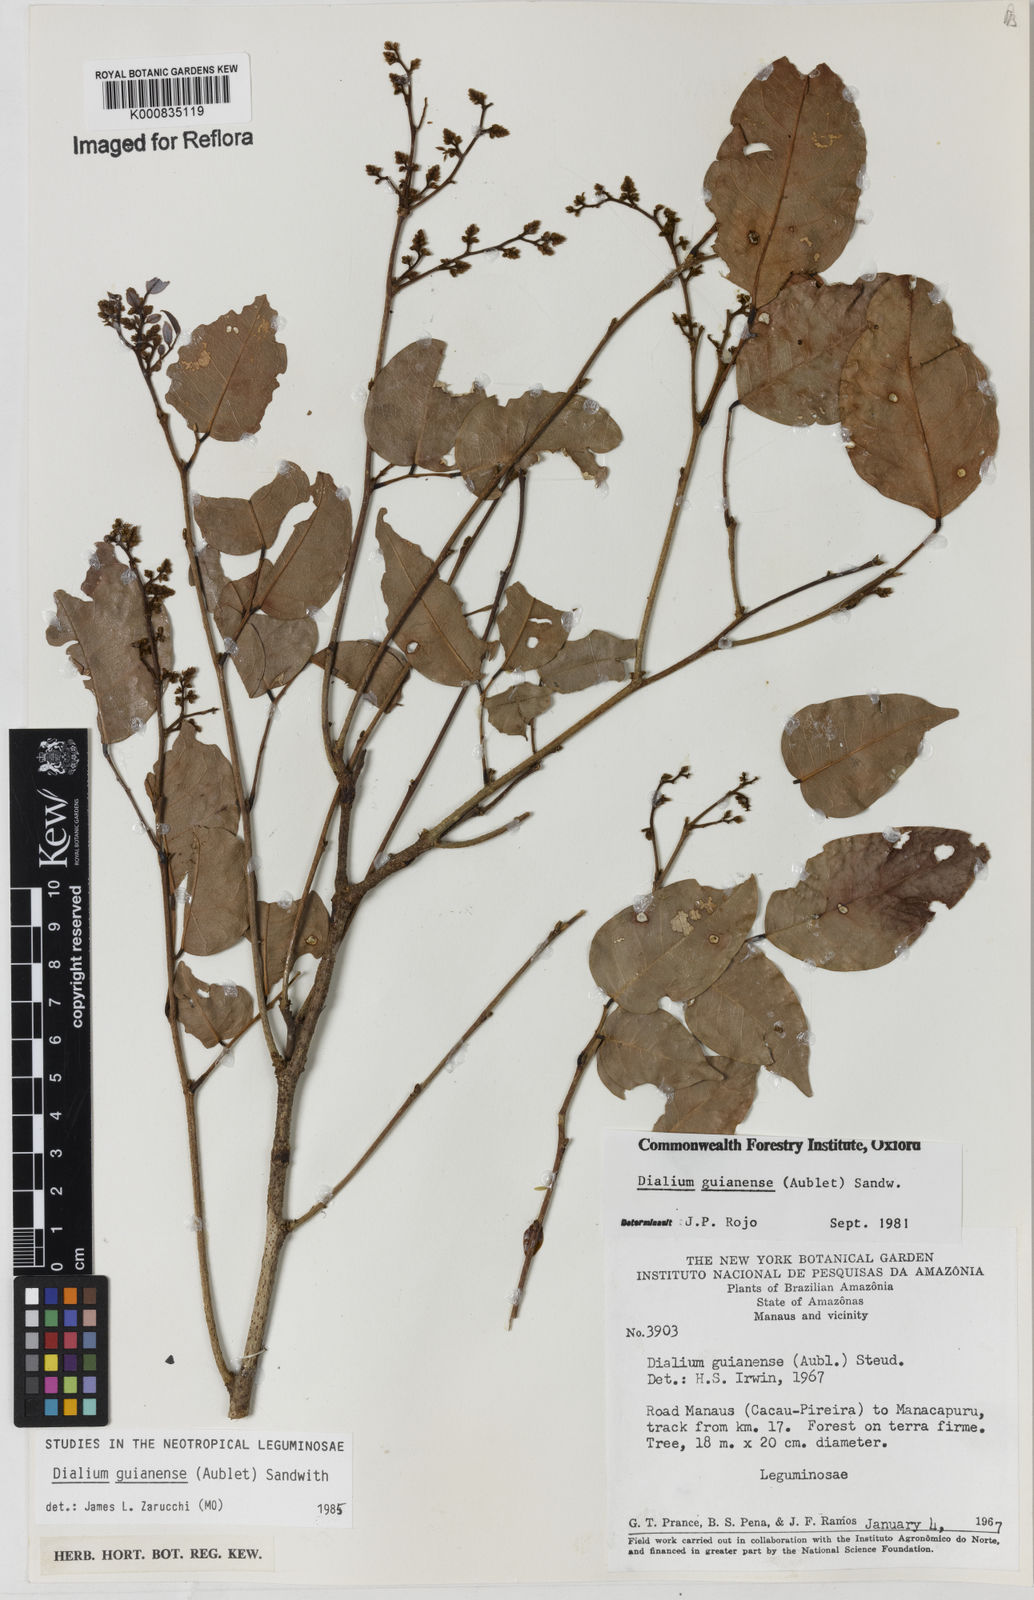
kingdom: Plantae
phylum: Tracheophyta
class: Magnoliopsida
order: Fabales
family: Fabaceae
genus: Dialium
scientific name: Dialium guianense
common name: Ironwood
